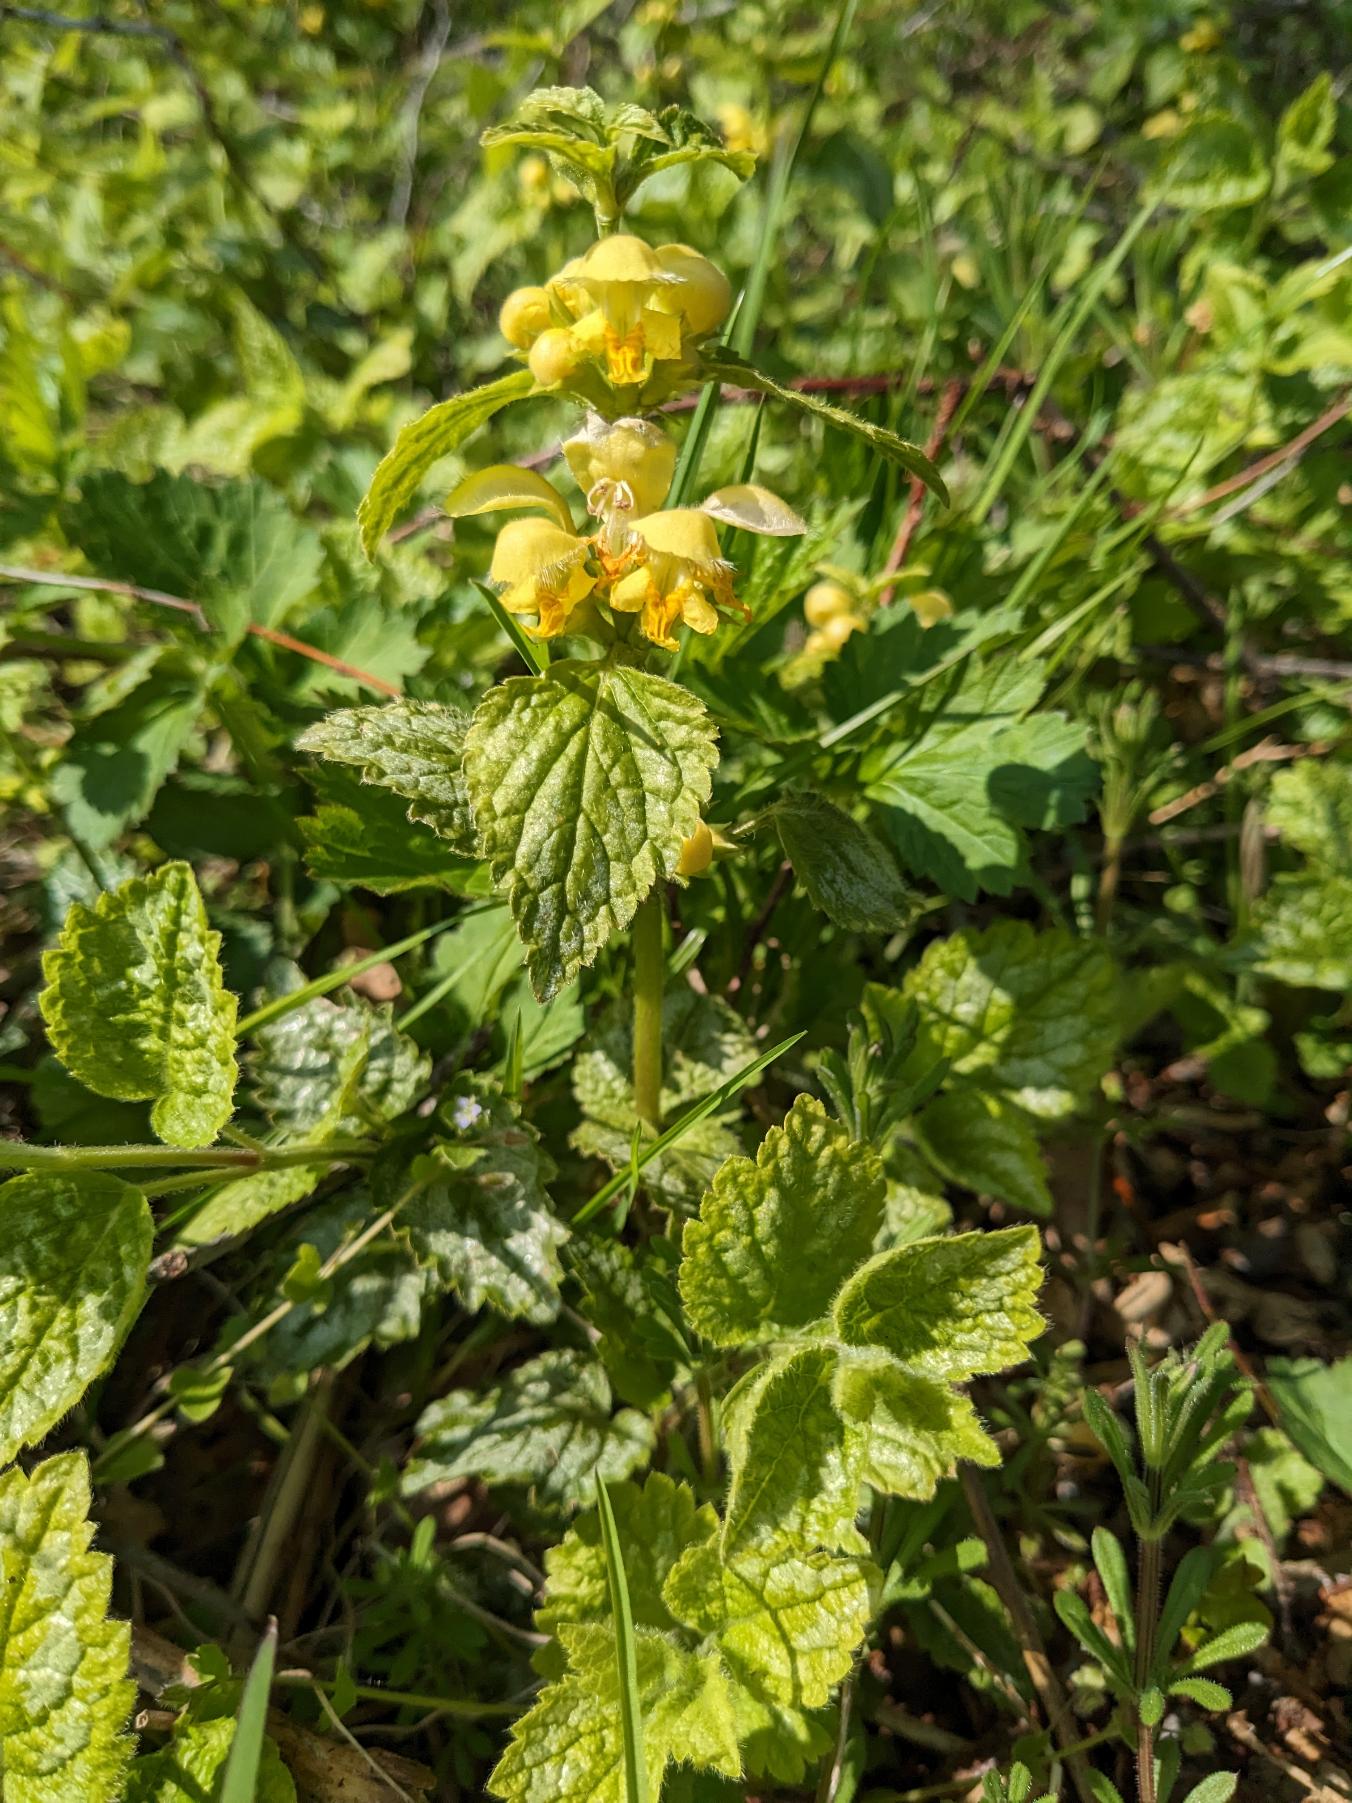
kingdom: Plantae
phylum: Tracheophyta
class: Magnoliopsida
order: Lamiales
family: Lamiaceae
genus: Lamium
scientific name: Lamium galeobdolon
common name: Have-guldnælde
